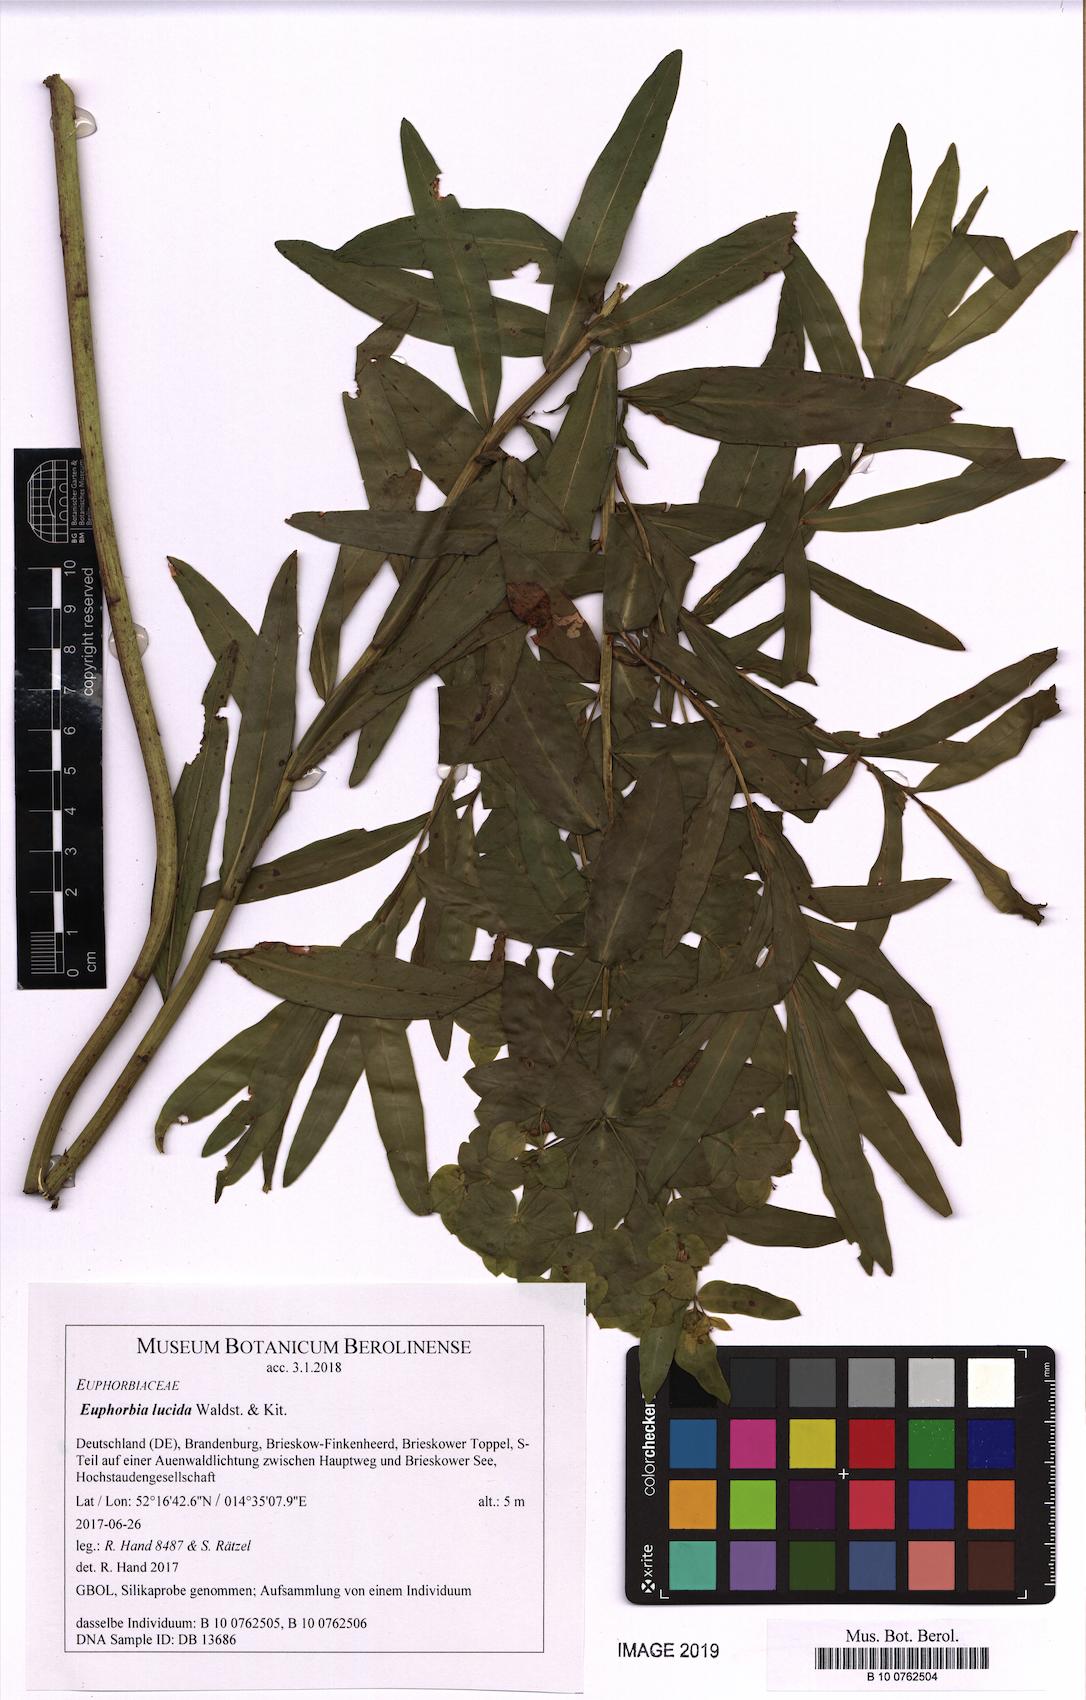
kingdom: Plantae
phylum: Tracheophyta
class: Magnoliopsida
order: Malpighiales
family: Euphorbiaceae
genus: Euphorbia
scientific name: Euphorbia lucida
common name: Shining spurge
